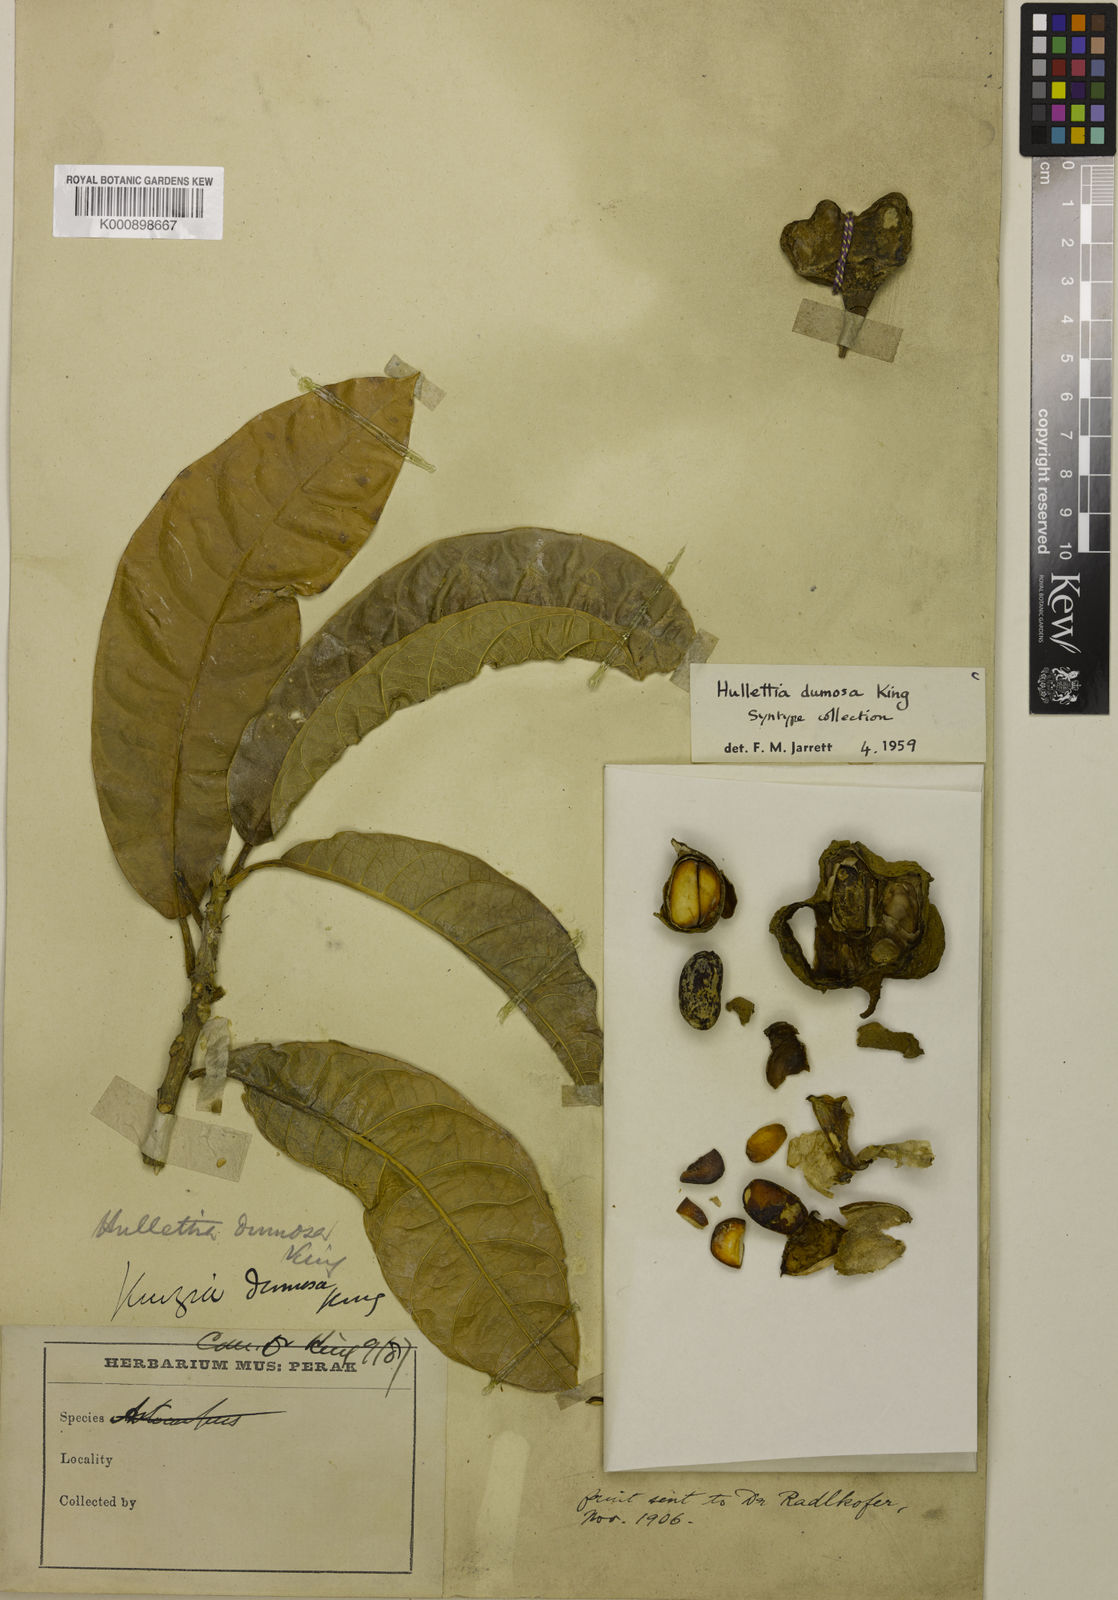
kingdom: Plantae
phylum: Tracheophyta
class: Magnoliopsida
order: Rosales
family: Moraceae
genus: Hullettia
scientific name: Hullettia
